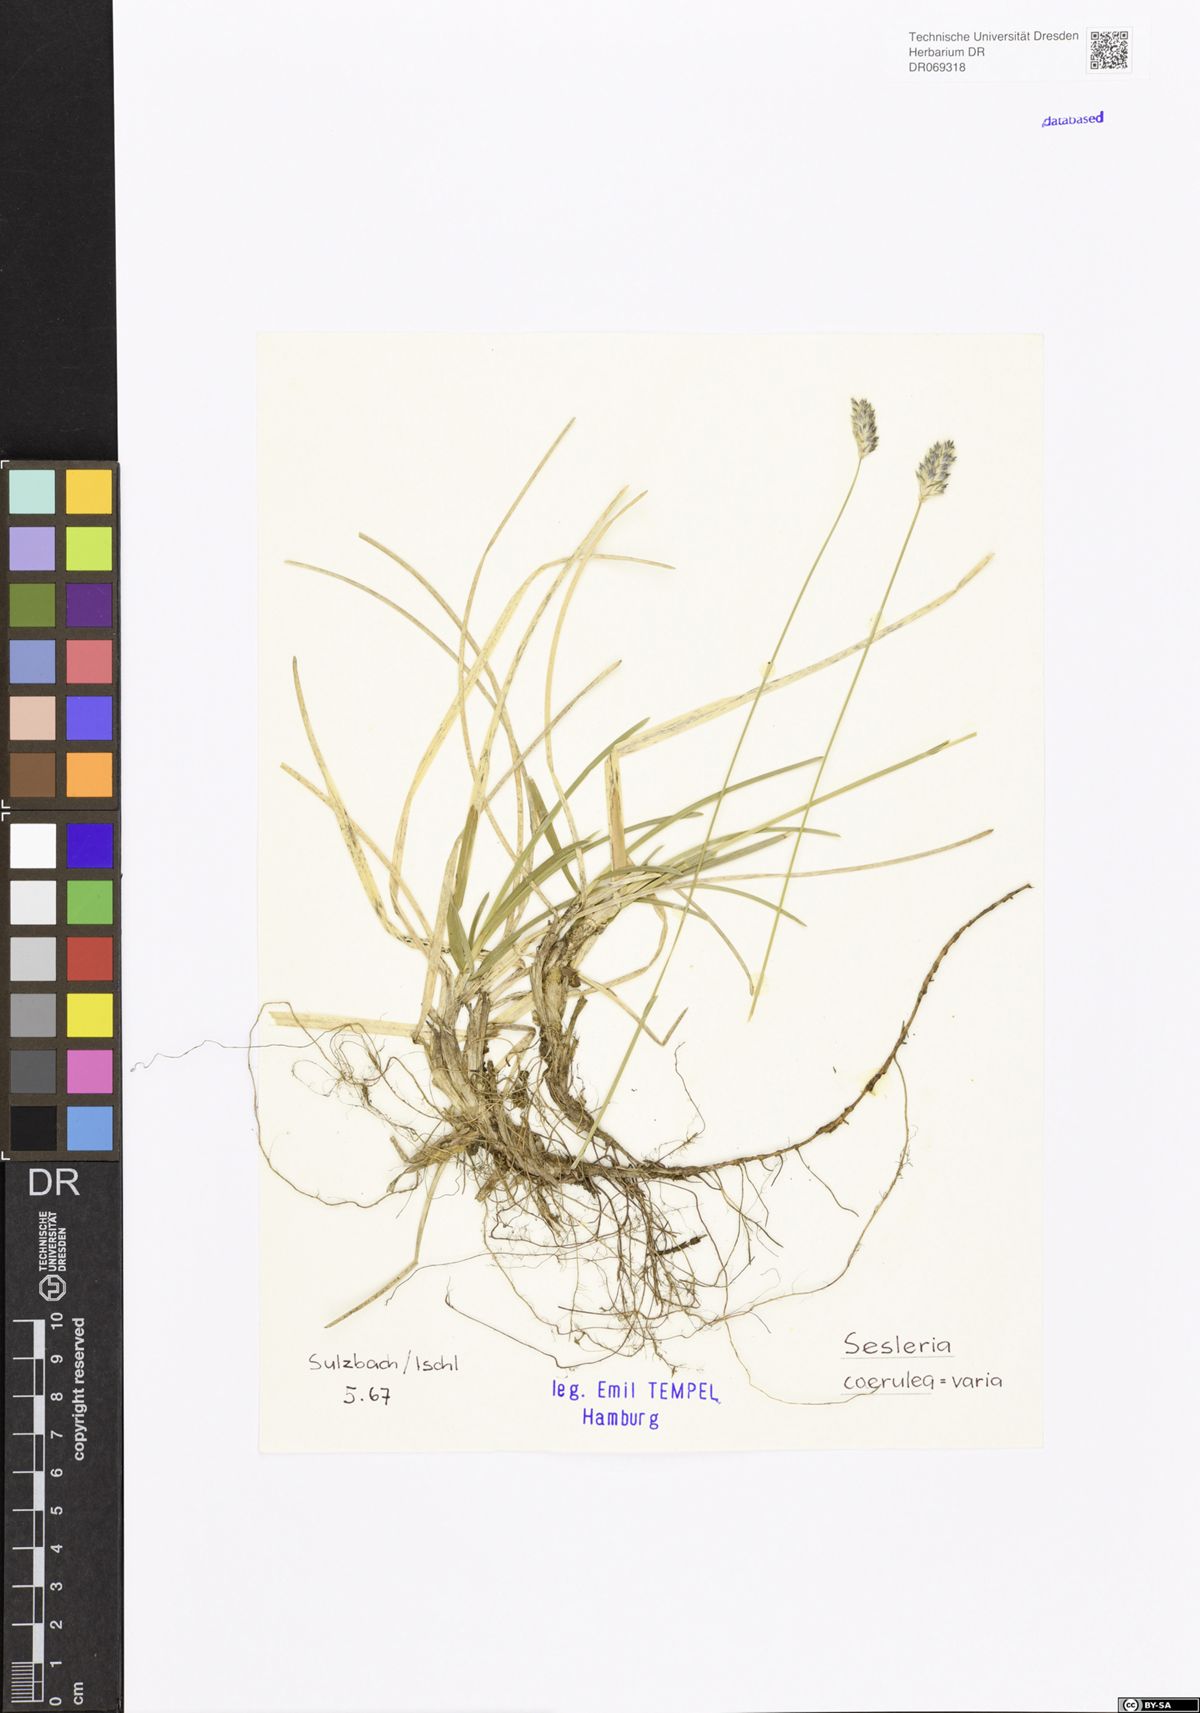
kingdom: Plantae
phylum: Tracheophyta
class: Liliopsida
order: Poales
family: Poaceae
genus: Sesleria
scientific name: Sesleria caerulea
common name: Blue moor-grass
